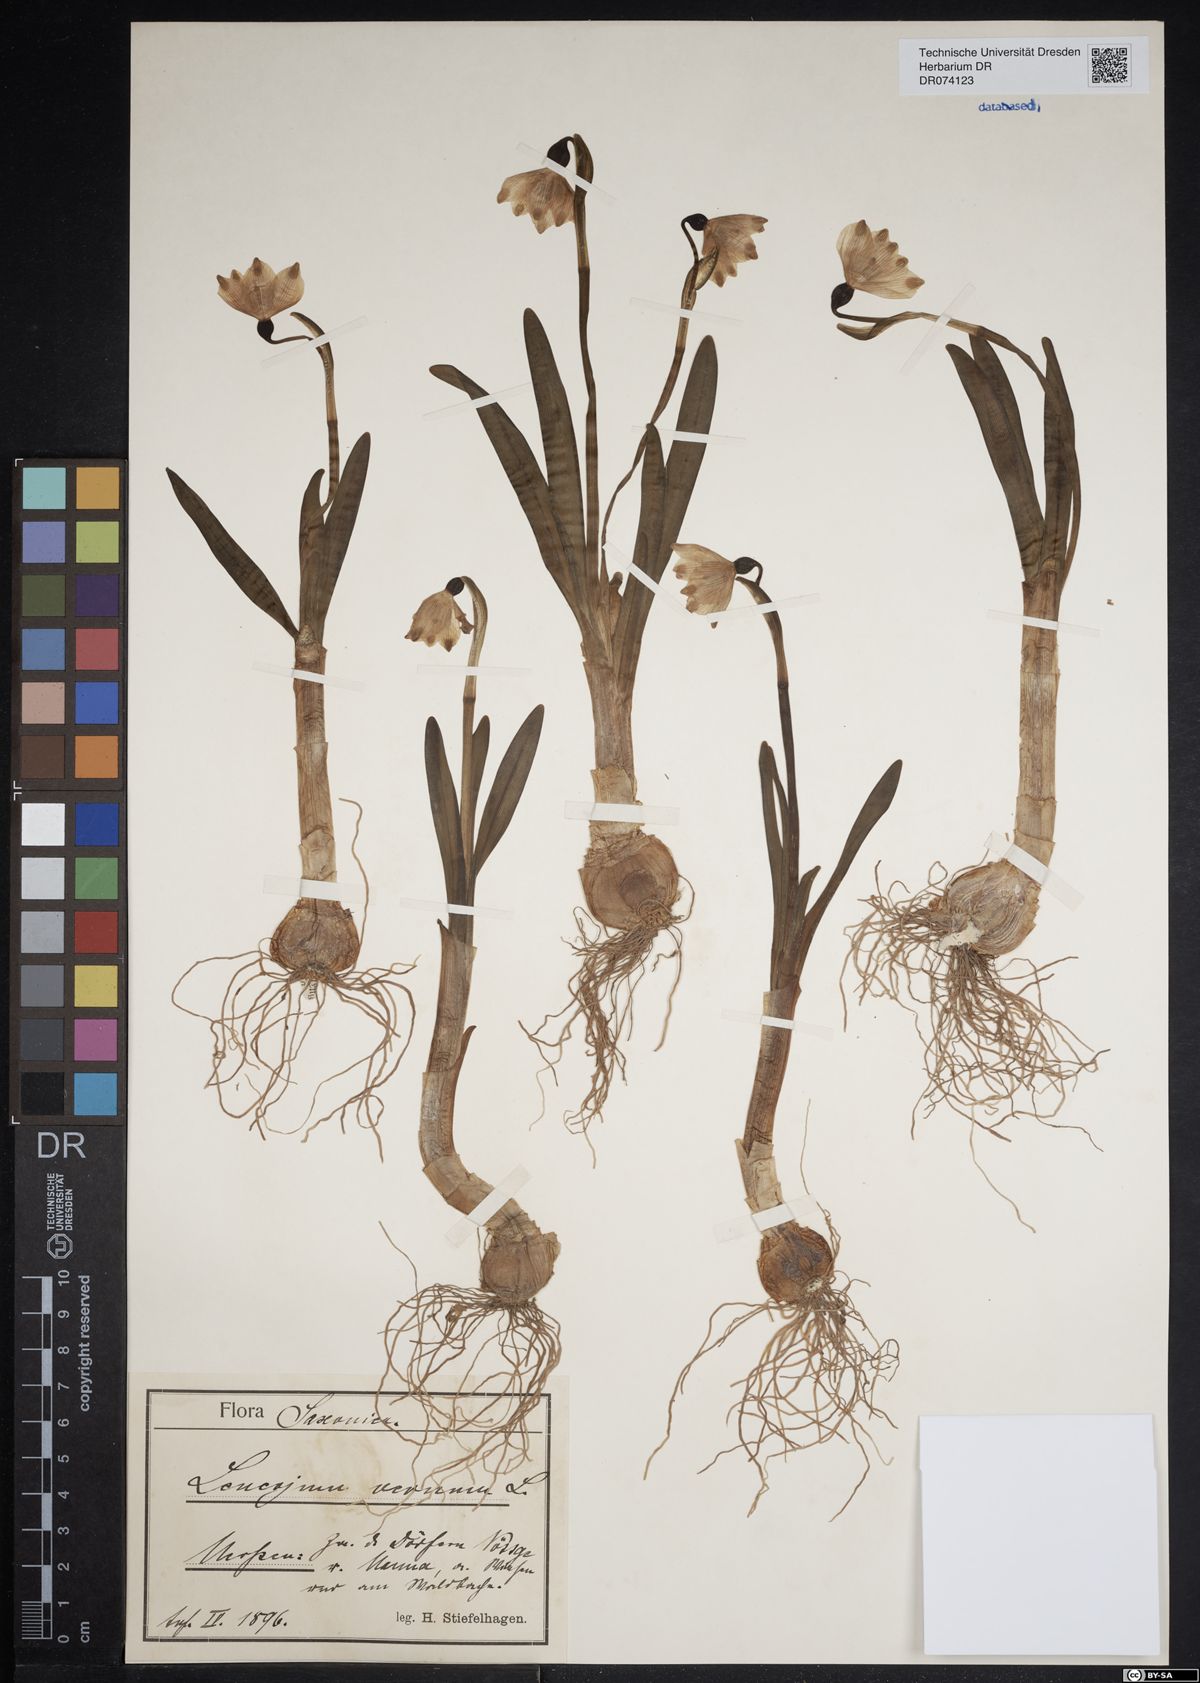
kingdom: Plantae
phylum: Tracheophyta
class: Liliopsida
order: Asparagales
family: Amaryllidaceae
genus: Leucojum
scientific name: Leucojum vernum
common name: Spring snowflake
